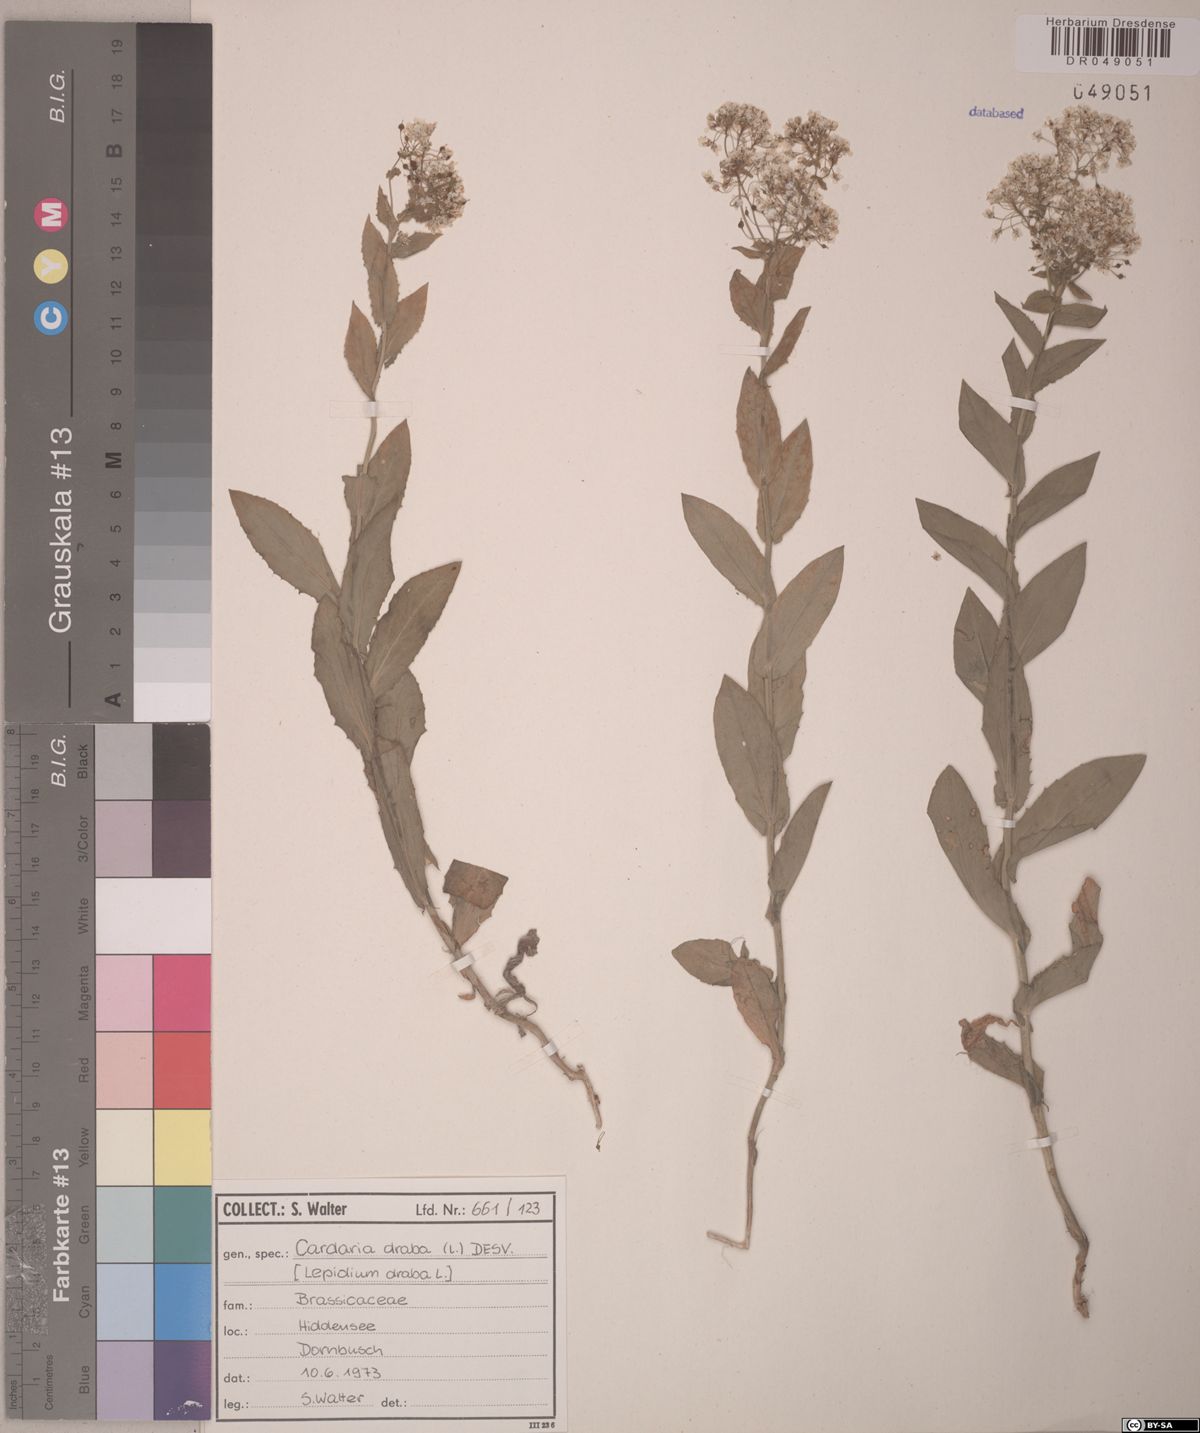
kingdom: Plantae
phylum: Tracheophyta
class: Magnoliopsida
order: Brassicales
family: Brassicaceae
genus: Lepidium
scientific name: Lepidium draba
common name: Hoary cress
